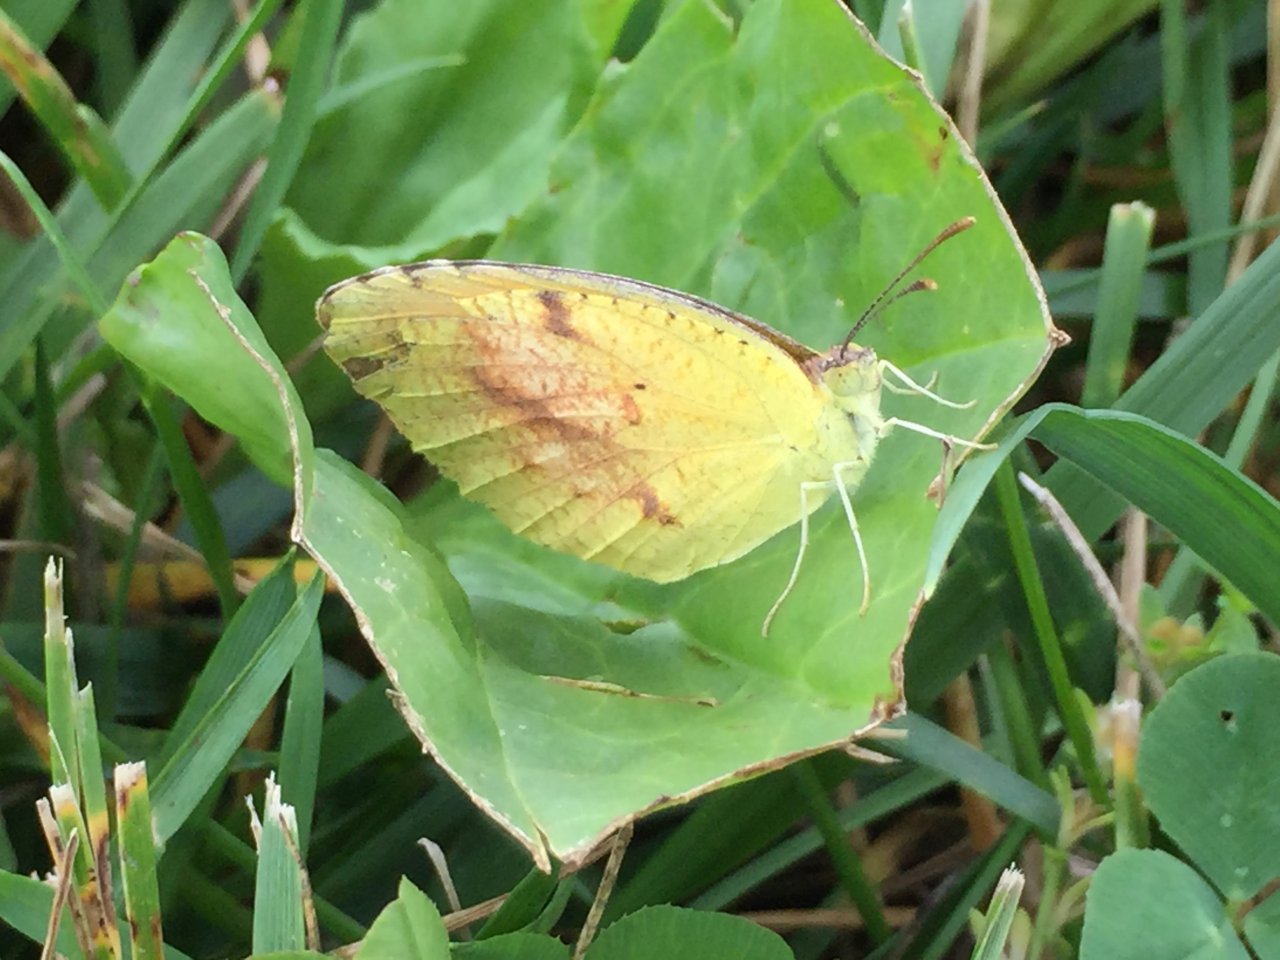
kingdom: Animalia
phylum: Arthropoda
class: Insecta
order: Lepidoptera
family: Pieridae
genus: Abaeis
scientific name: Abaeis nicippe
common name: Sleepy Orange
